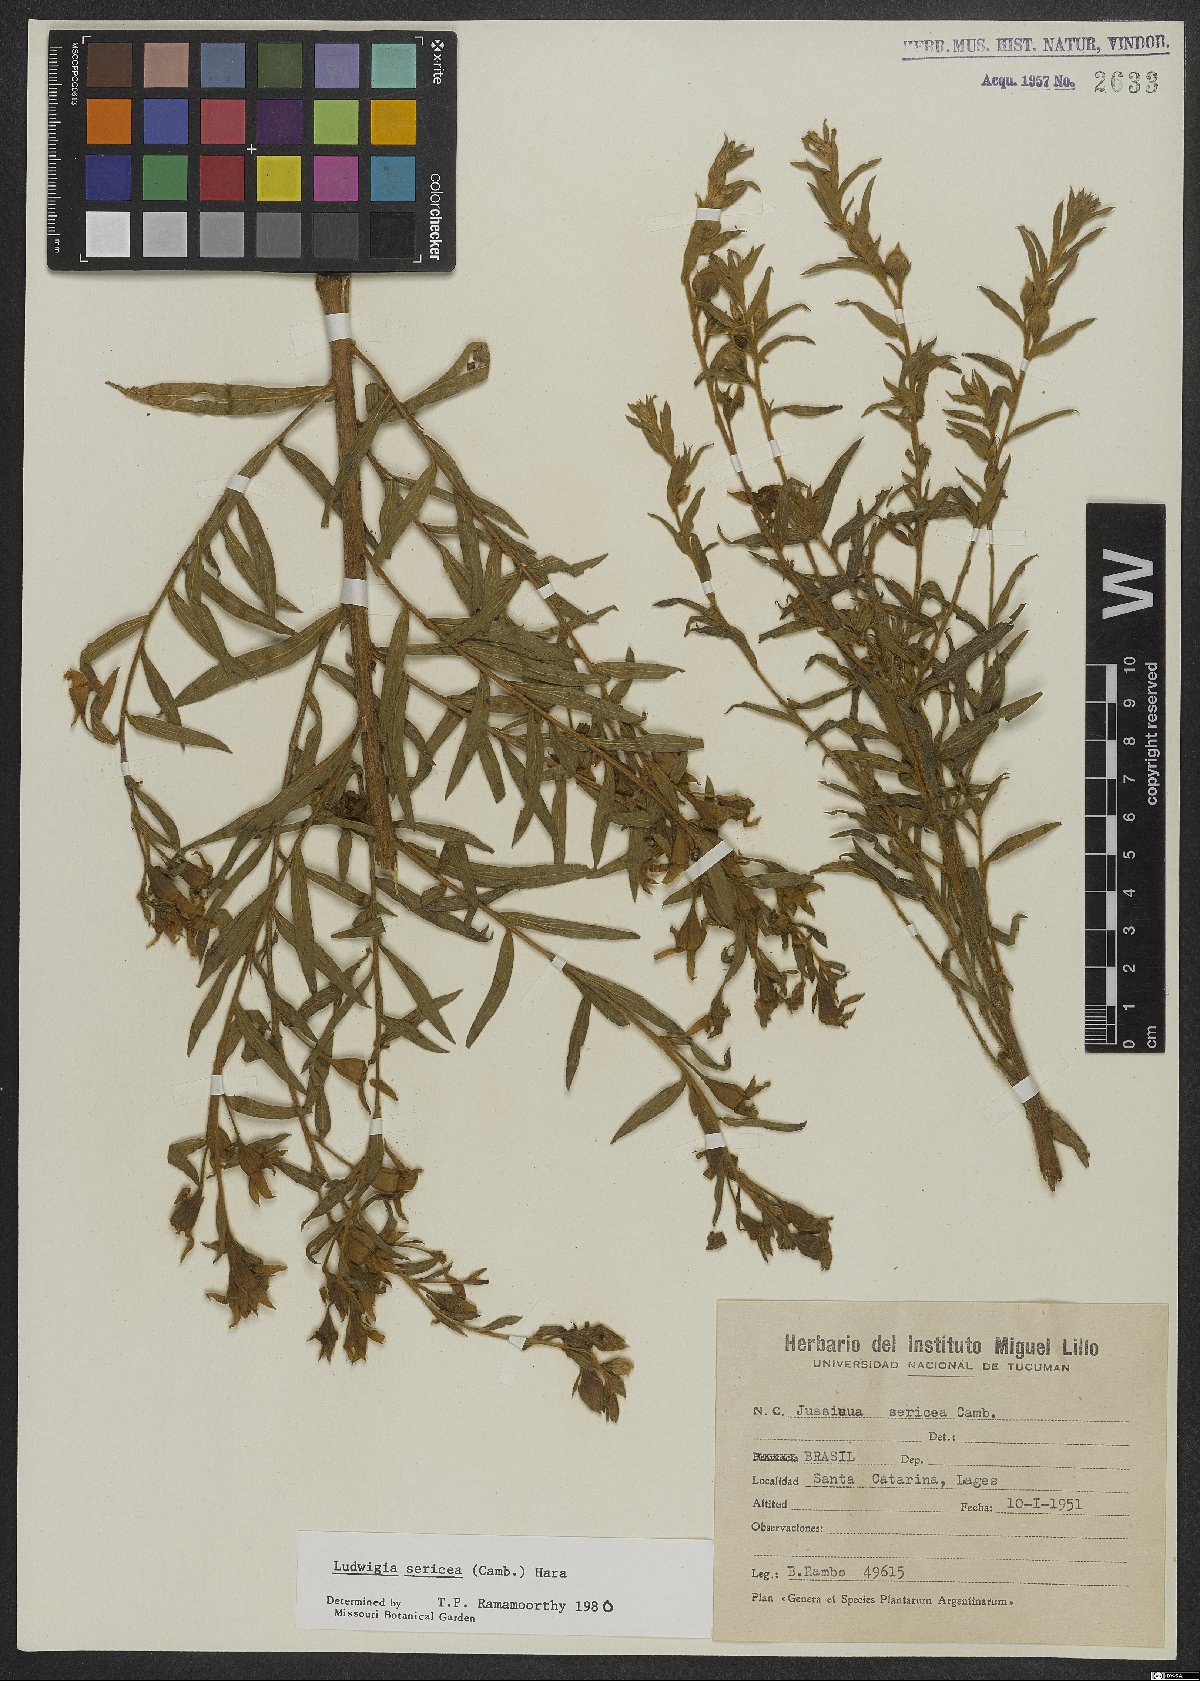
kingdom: Plantae
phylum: Tracheophyta
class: Magnoliopsida
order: Myrtales
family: Onagraceae
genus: Ludwigia
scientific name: Ludwigia sericea
